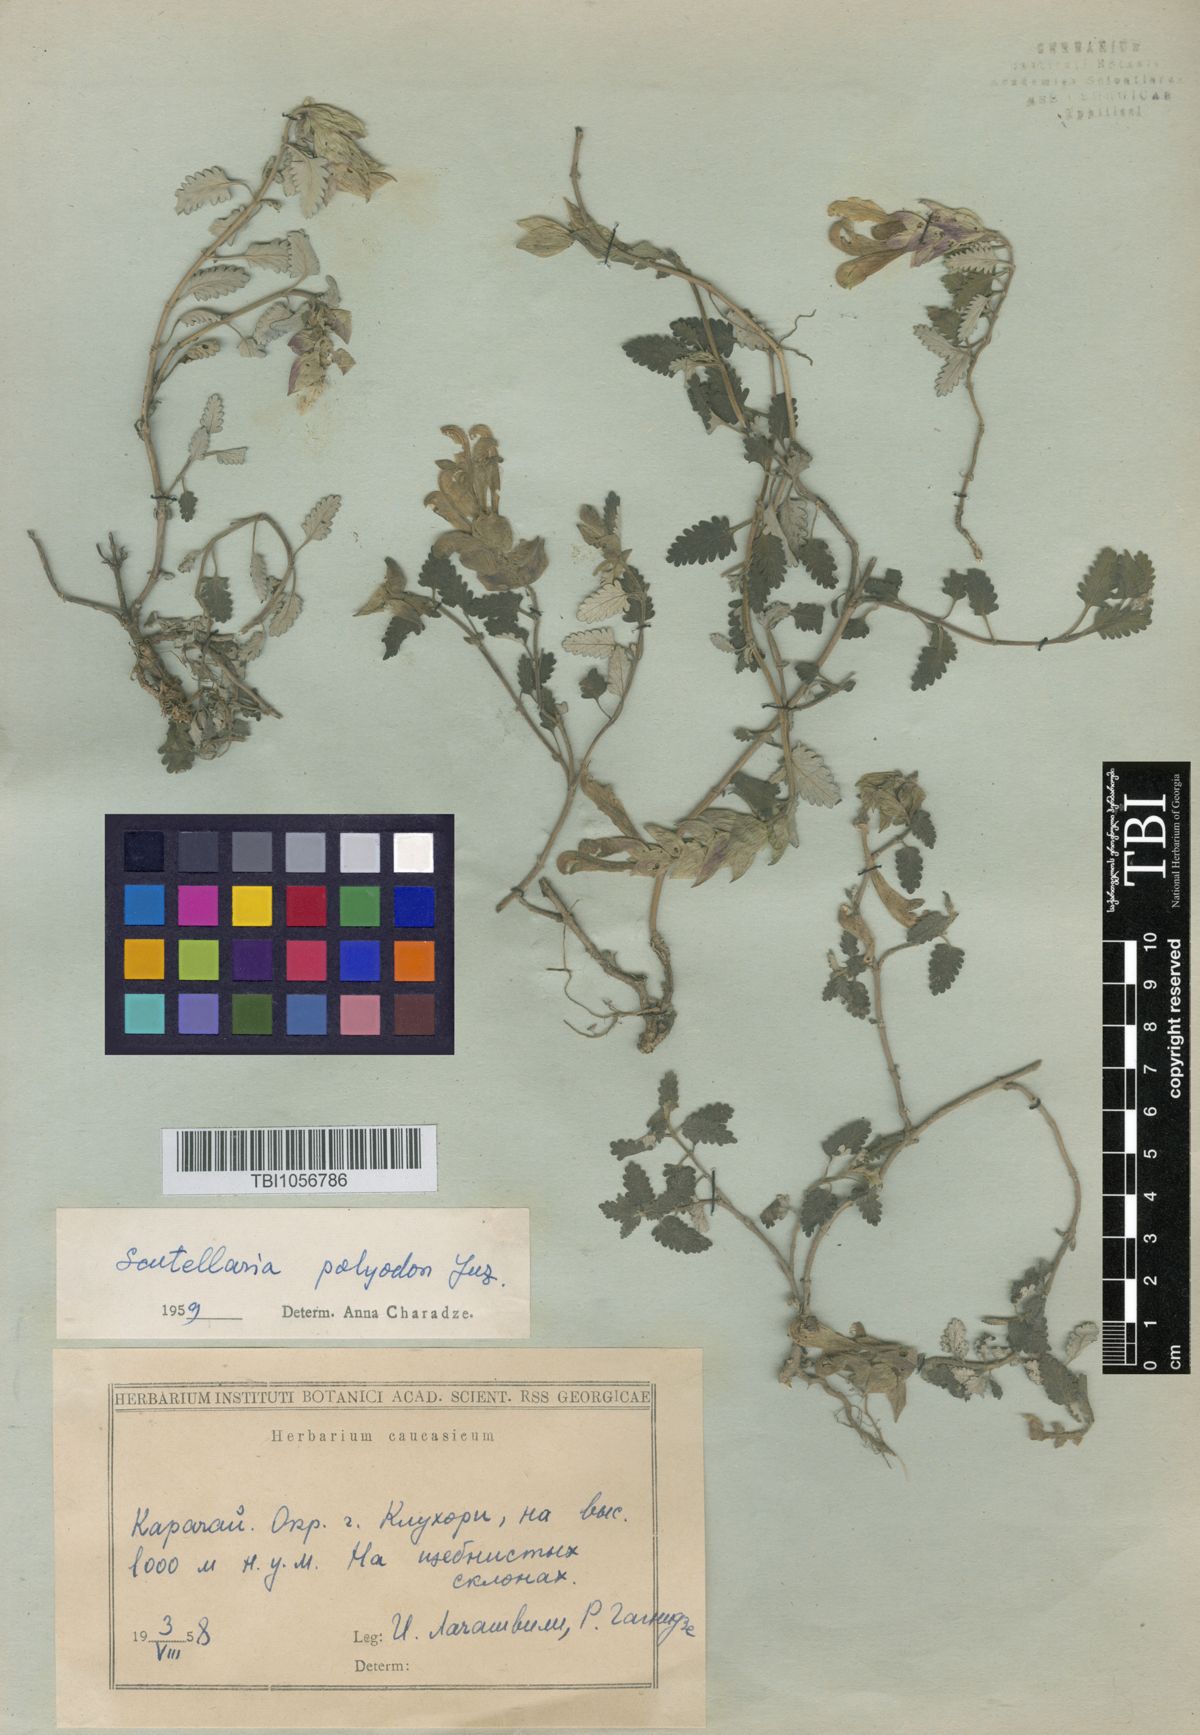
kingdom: Plantae
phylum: Tracheophyta
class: Magnoliopsida
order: Lamiales
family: Lamiaceae
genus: Scutellaria
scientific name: Scutellaria caucasica
